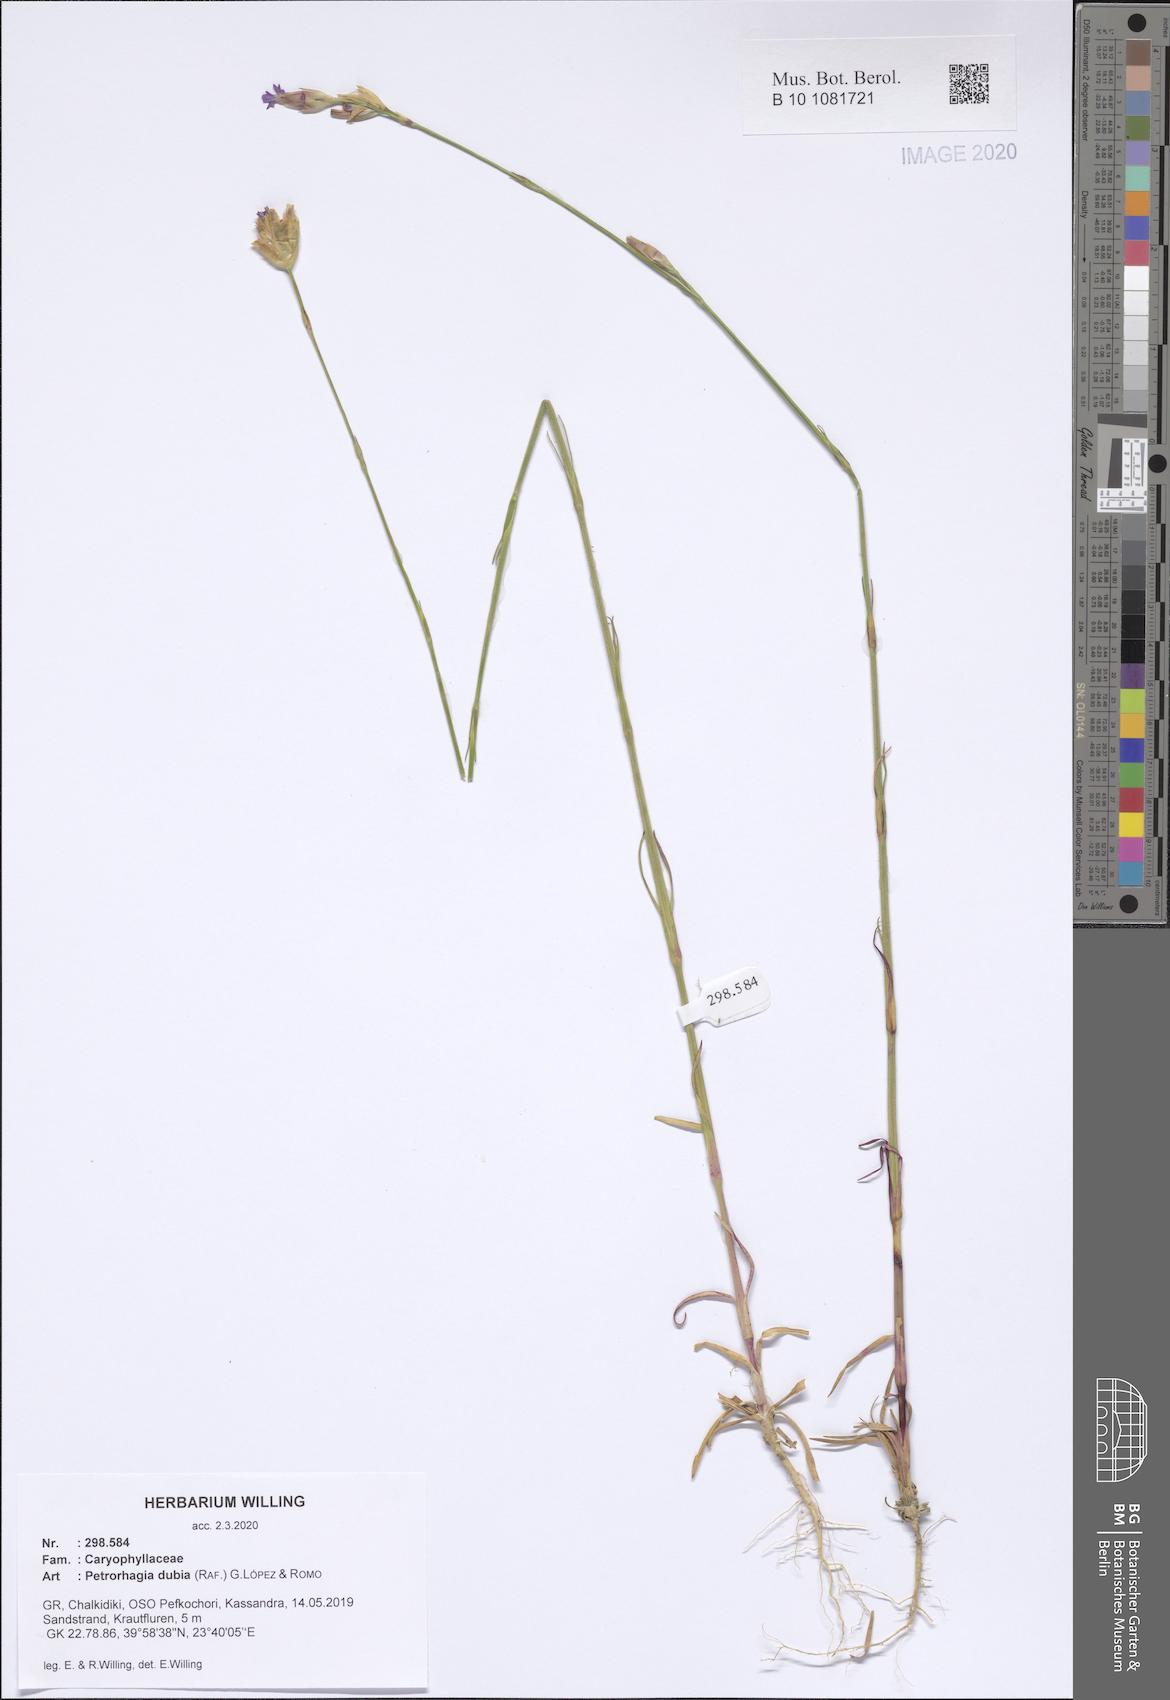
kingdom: Plantae
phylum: Tracheophyta
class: Magnoliopsida
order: Caryophyllales
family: Caryophyllaceae
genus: Petrorhagia
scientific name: Petrorhagia dubia
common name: Hairypink
